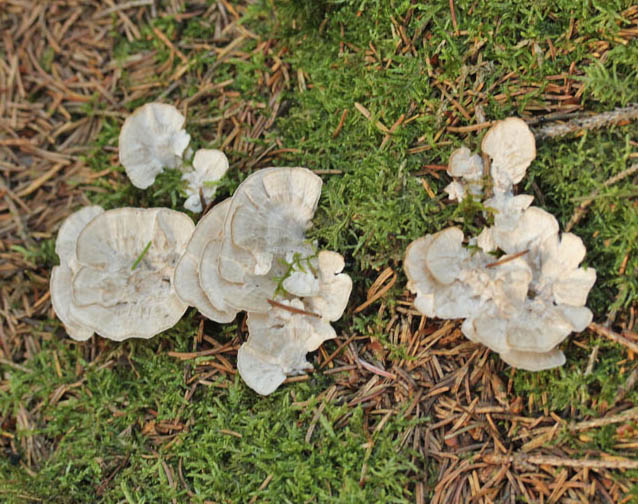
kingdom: Fungi
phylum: Basidiomycota
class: Agaricomycetes
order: Polyporales
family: Dacryobolaceae
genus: Spongiporus
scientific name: Spongiporus floriformis
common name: oprejst kødporesvamp
